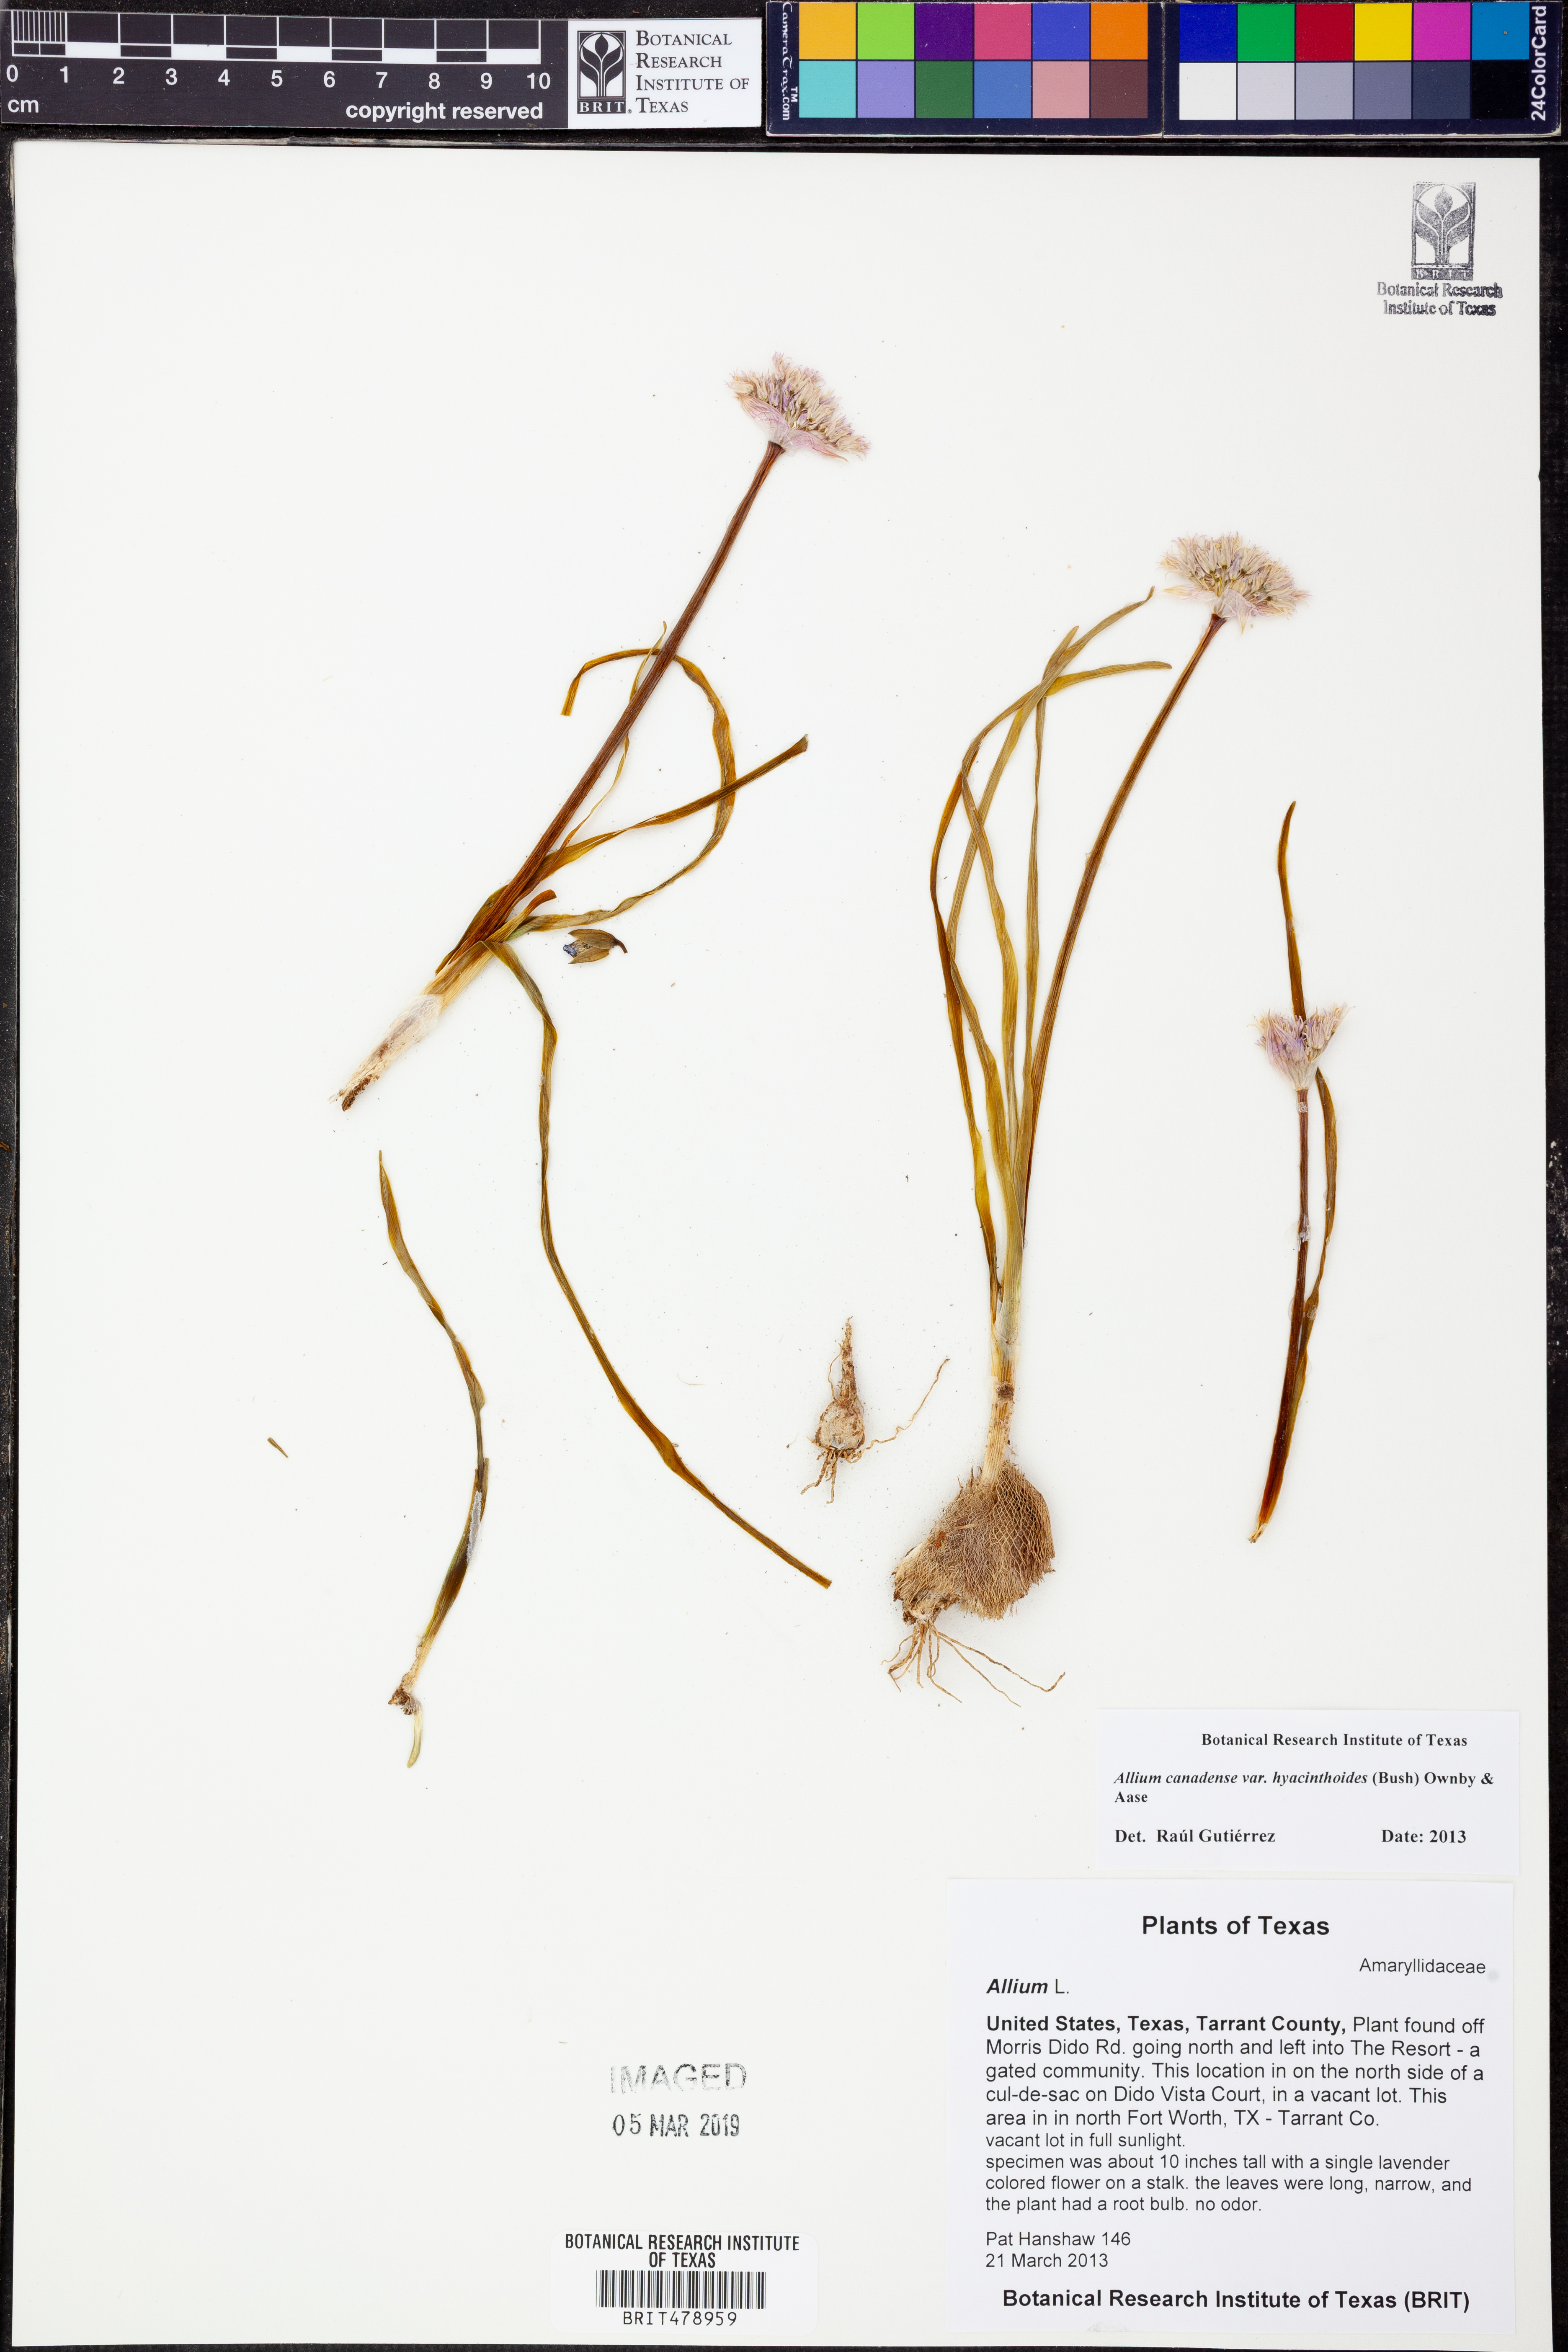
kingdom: Plantae
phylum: Tracheophyta
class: Liliopsida
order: Asparagales
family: Amaryllidaceae
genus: Allium
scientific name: Allium canadense
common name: Meadow garlic
